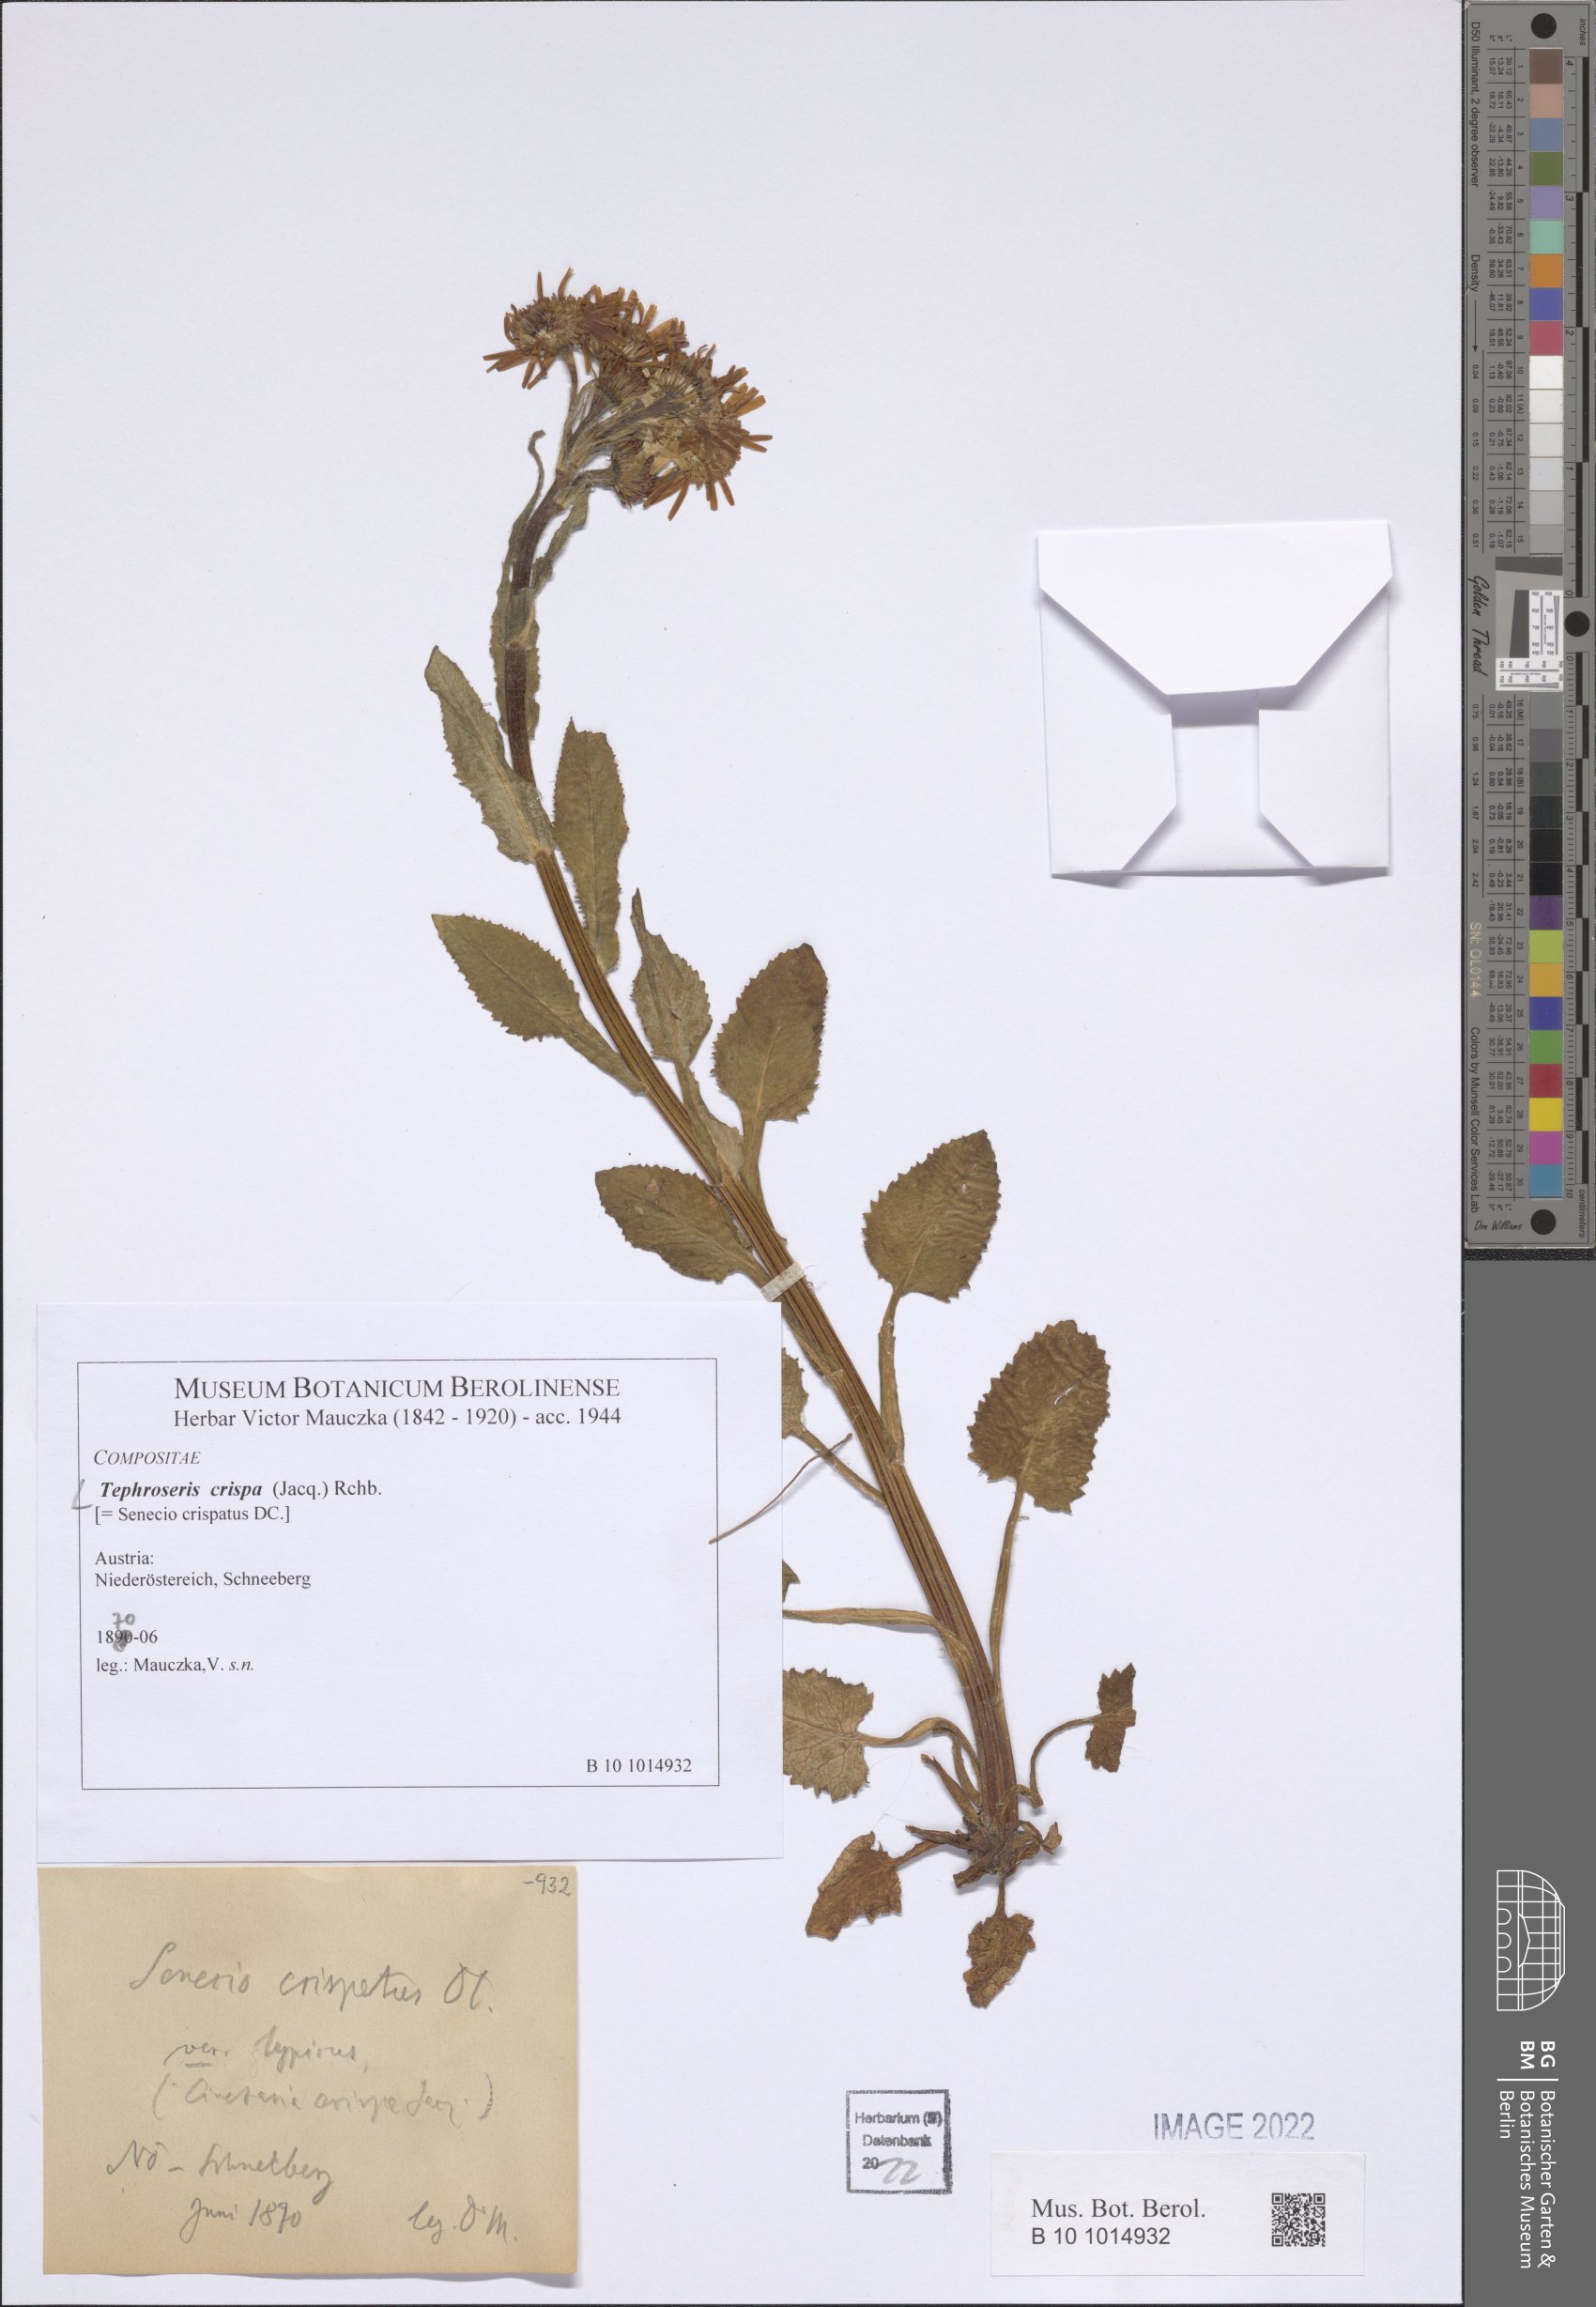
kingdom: Plantae
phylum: Tracheophyta
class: Magnoliopsida
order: Asterales
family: Asteraceae
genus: Tephroseris
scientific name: Tephroseris crispa
